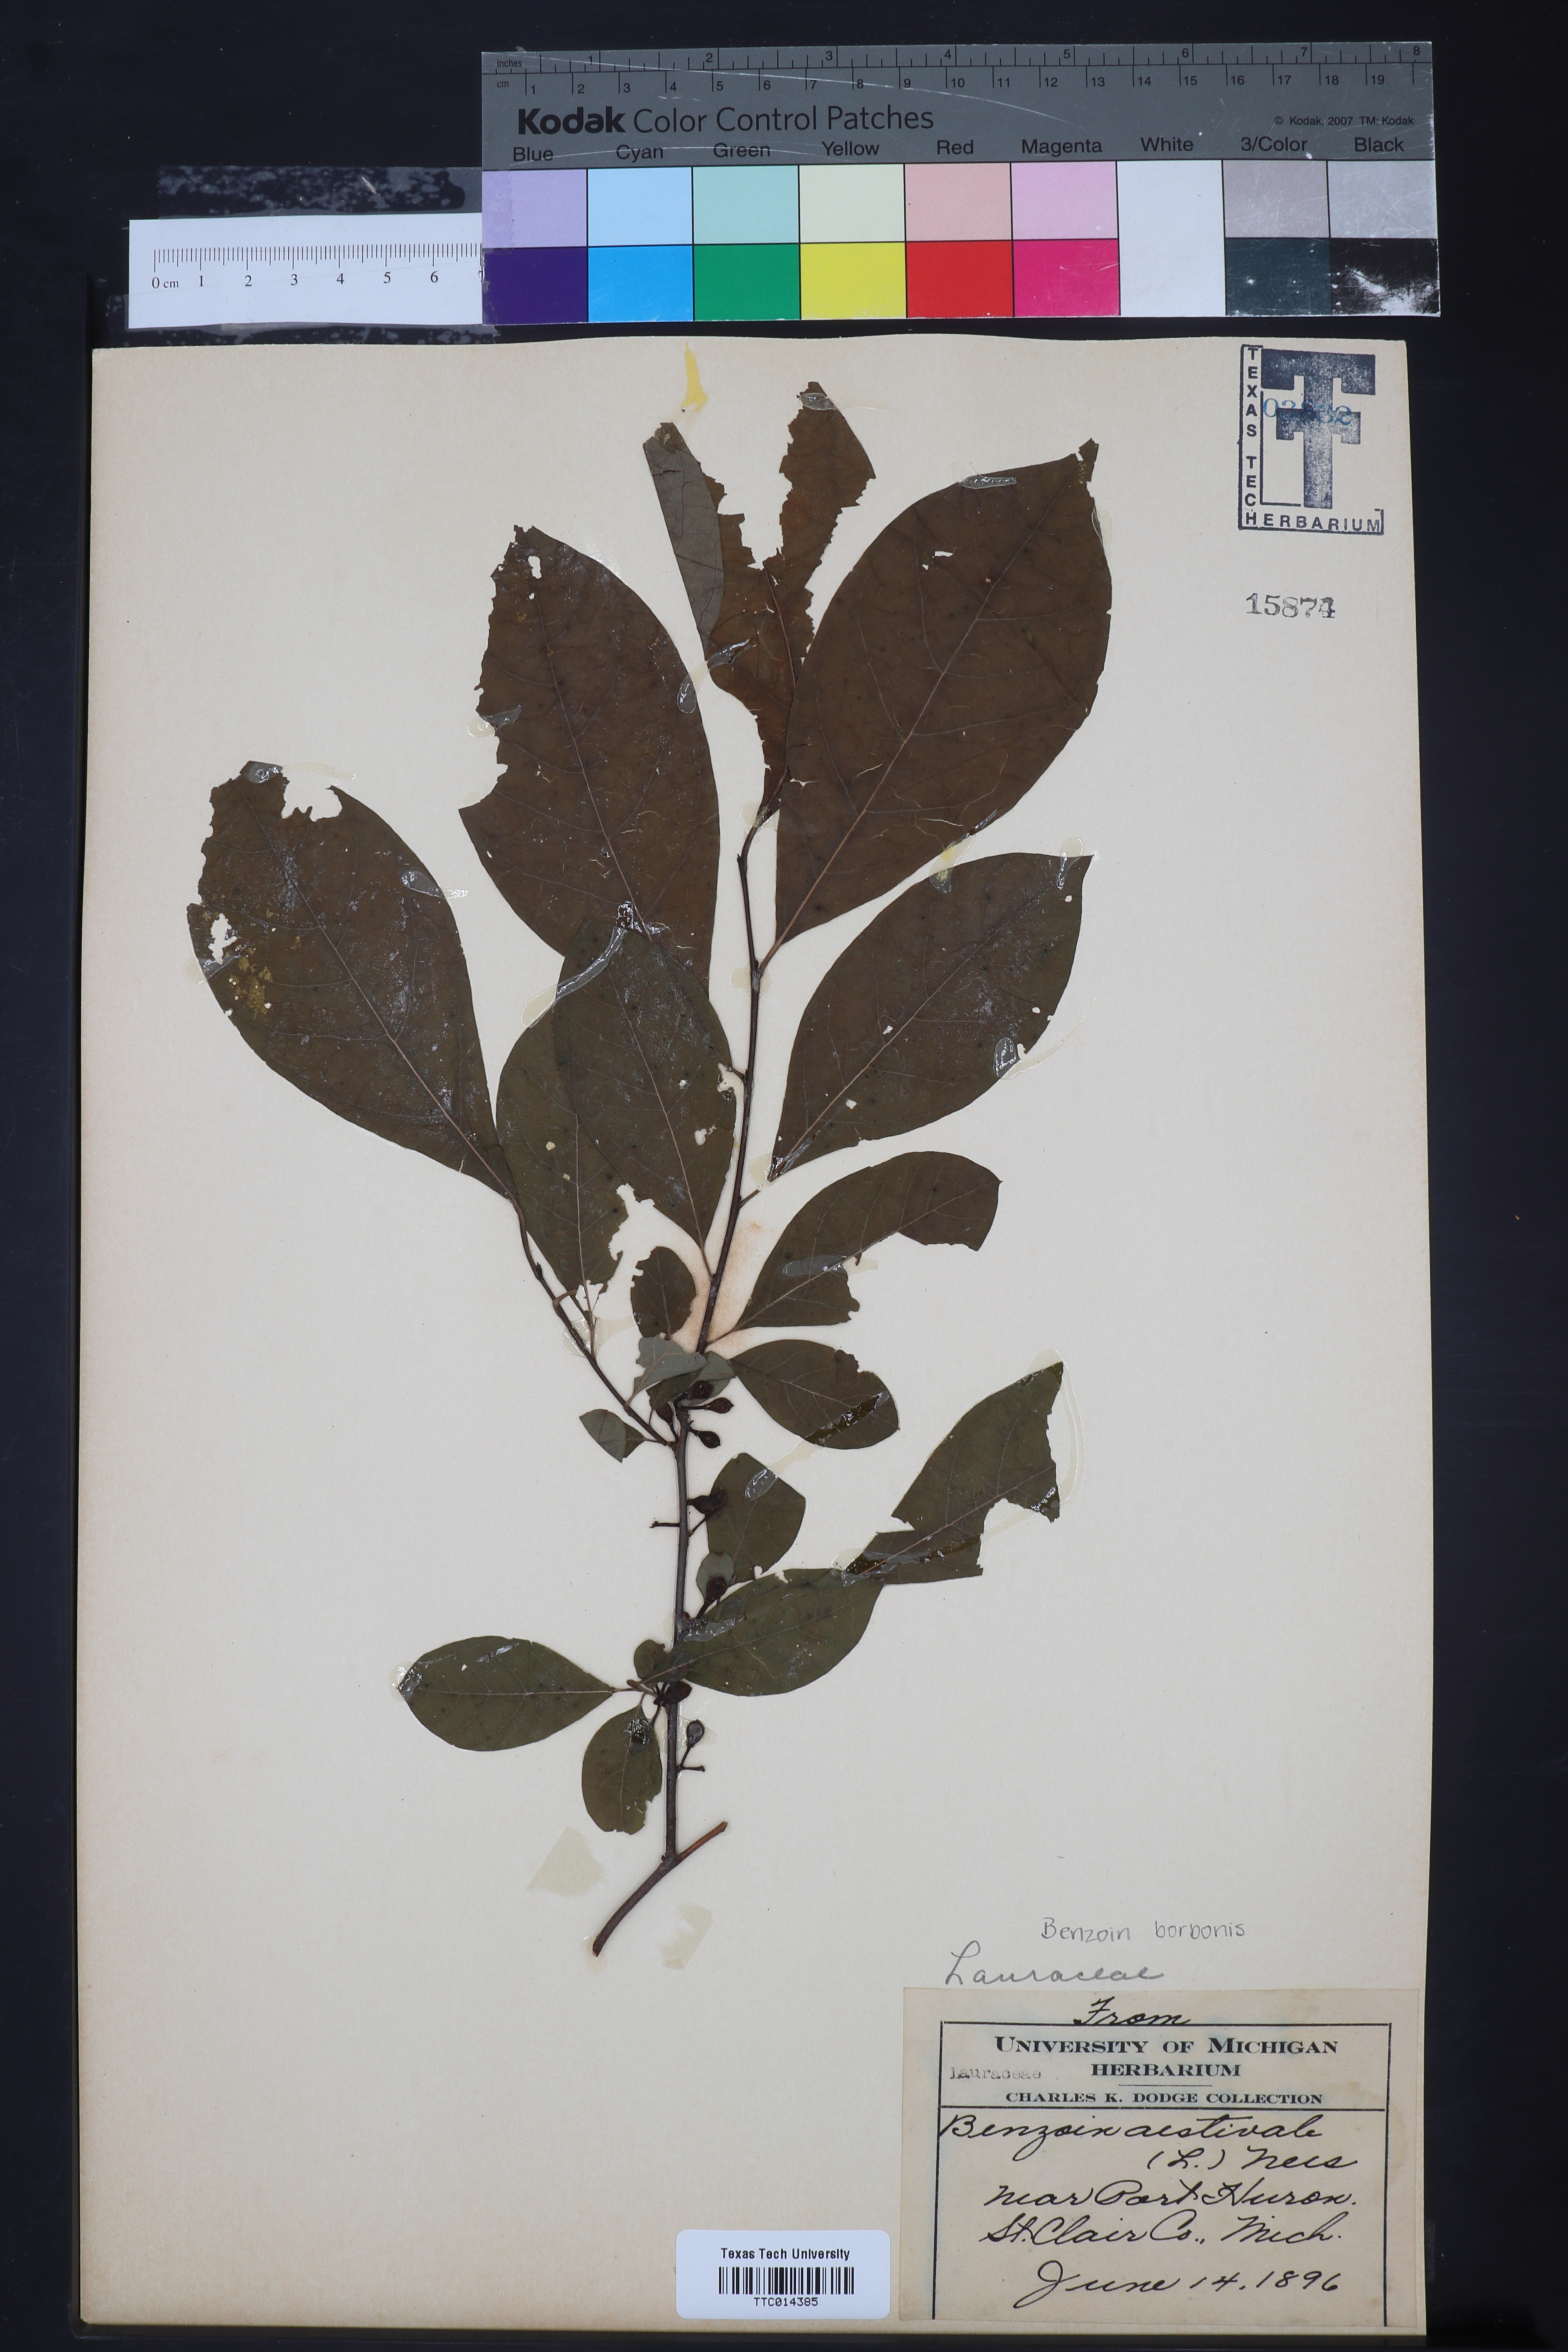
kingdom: Plantae
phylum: Tracheophyta
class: Magnoliopsida
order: Laurales
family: Lauraceae
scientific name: Lauraceae
